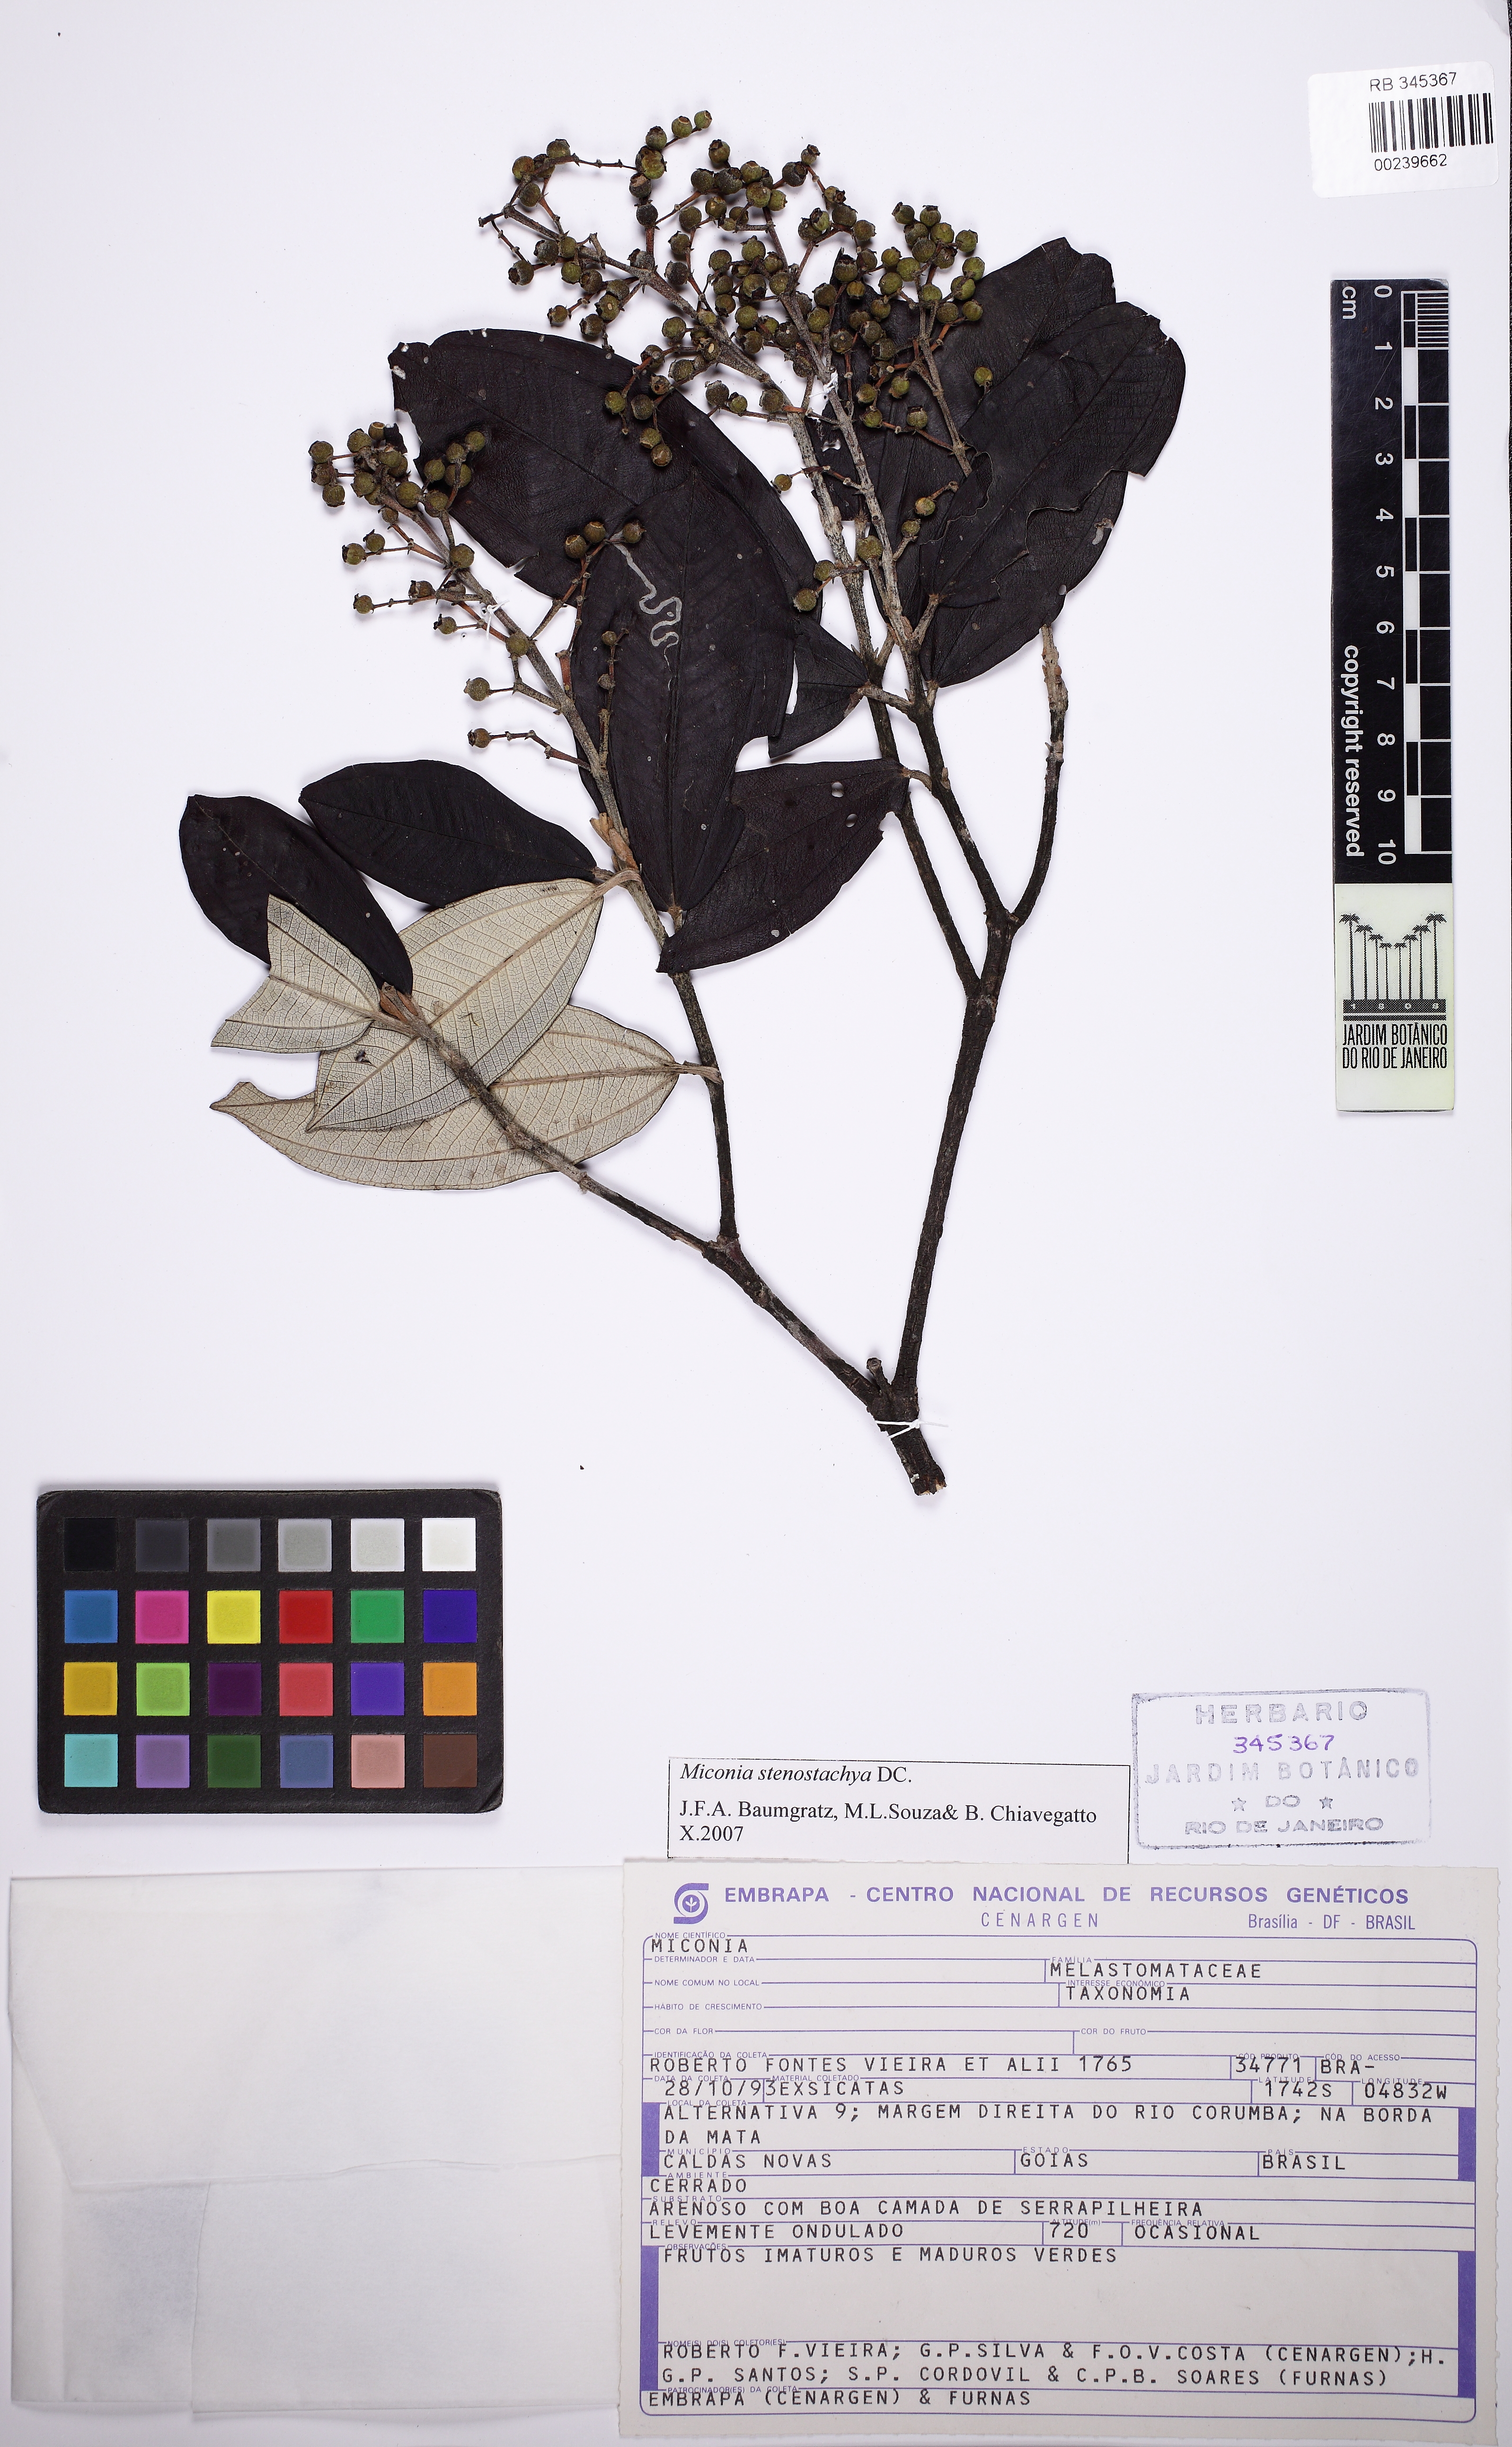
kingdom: Plantae
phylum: Tracheophyta
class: Magnoliopsida
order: Myrtales
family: Melastomataceae
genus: Miconia
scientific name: Miconia stenostachya
